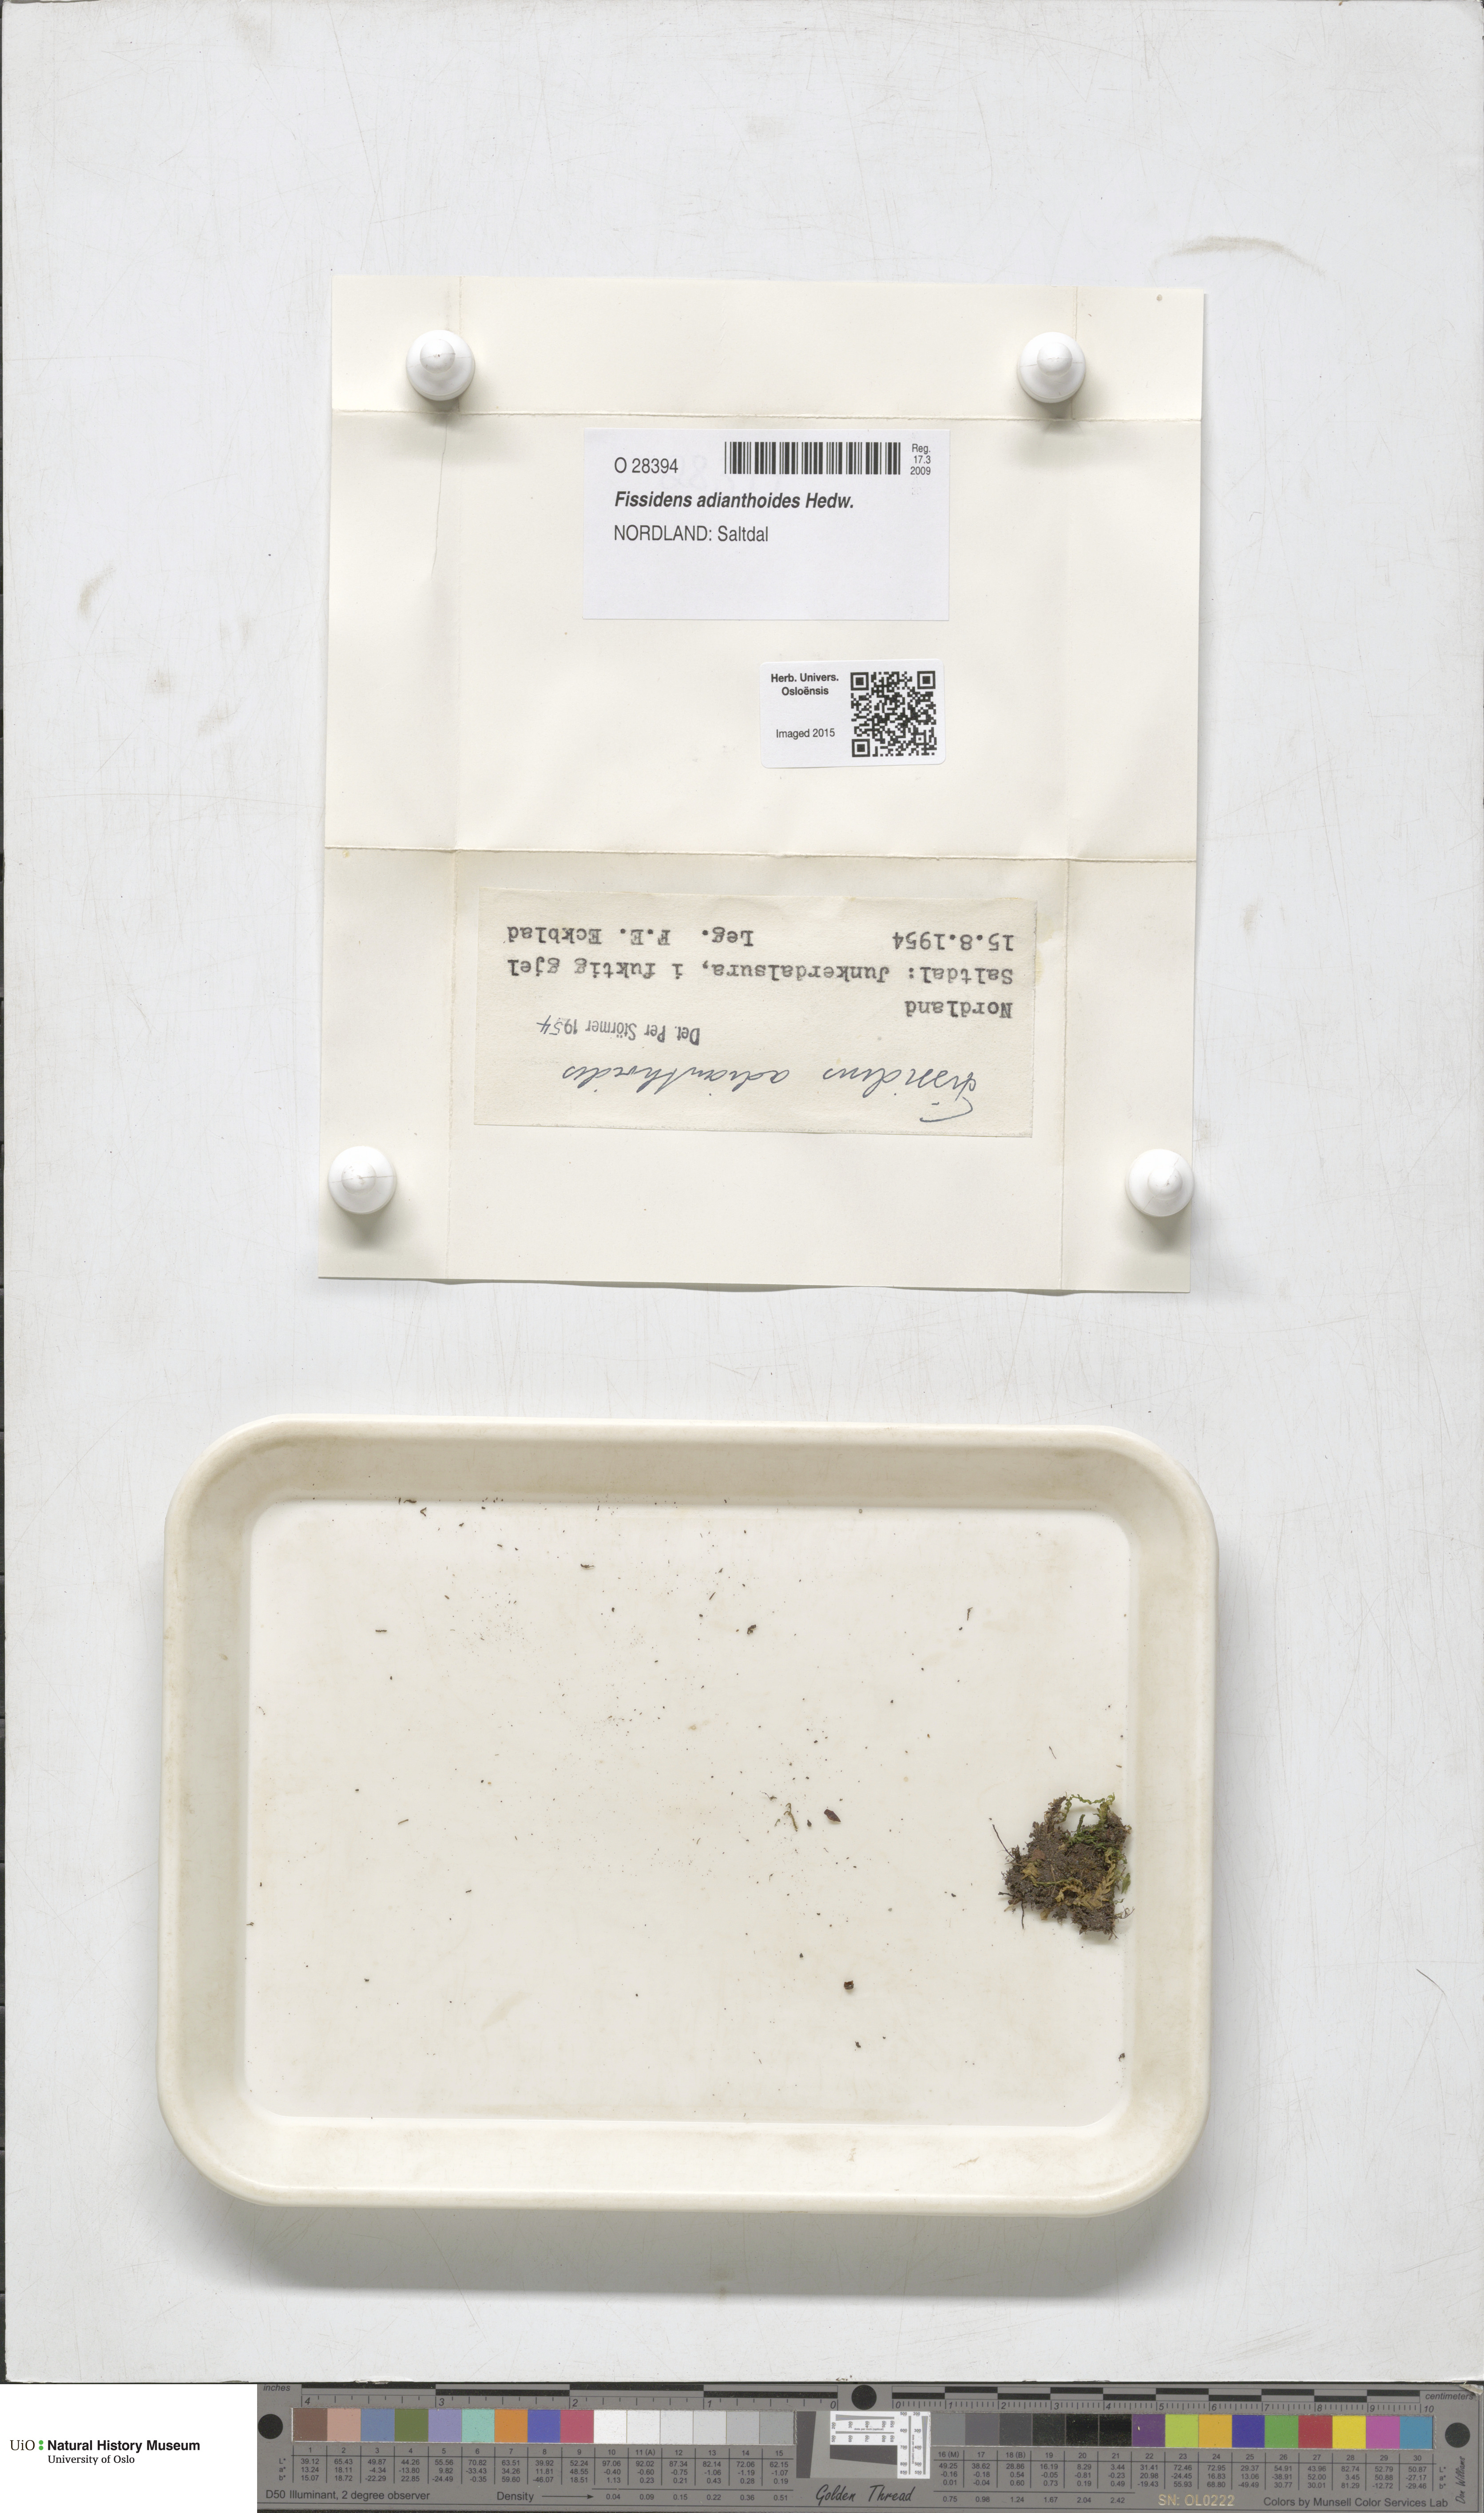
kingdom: Plantae
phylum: Bryophyta
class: Bryopsida
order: Dicranales
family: Fissidentaceae
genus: Fissidens
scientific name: Fissidens adianthoides
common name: Maidenhair pocket moss
